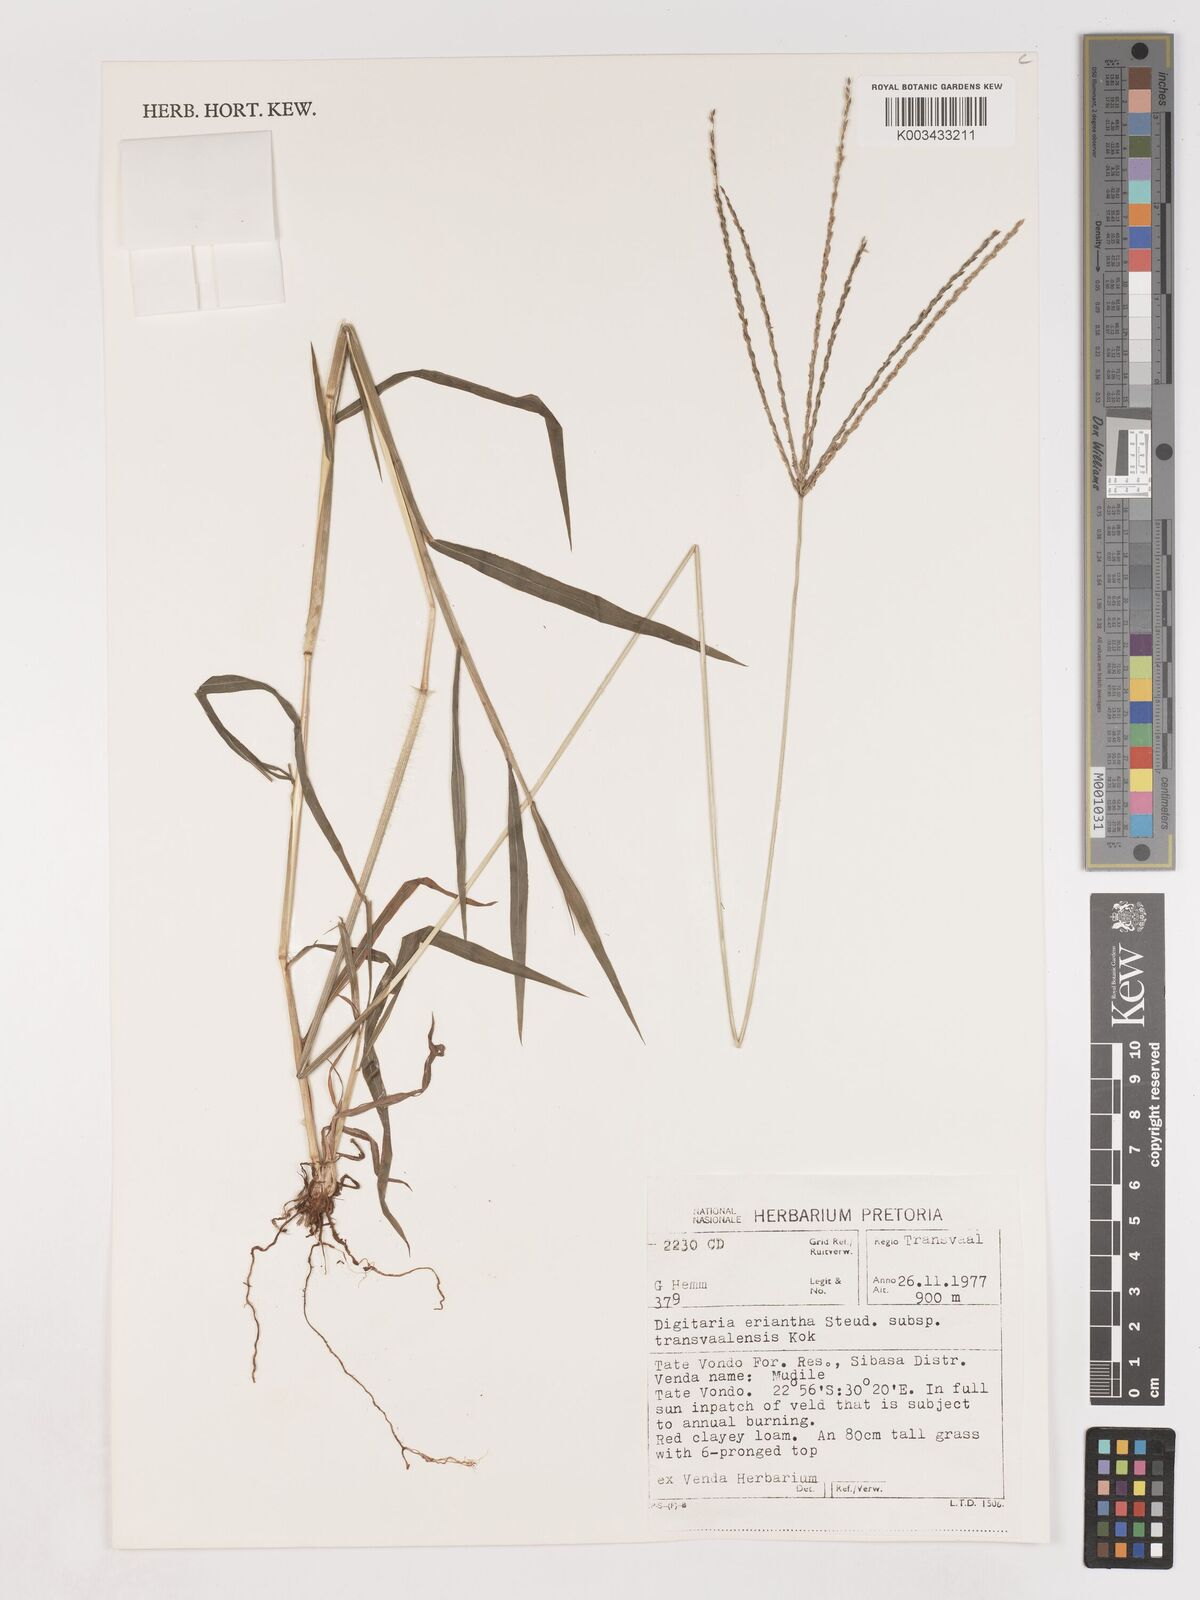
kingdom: Plantae
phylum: Tracheophyta
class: Liliopsida
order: Poales
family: Poaceae
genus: Digitaria
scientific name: Digitaria eriantha
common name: Digitgrass
